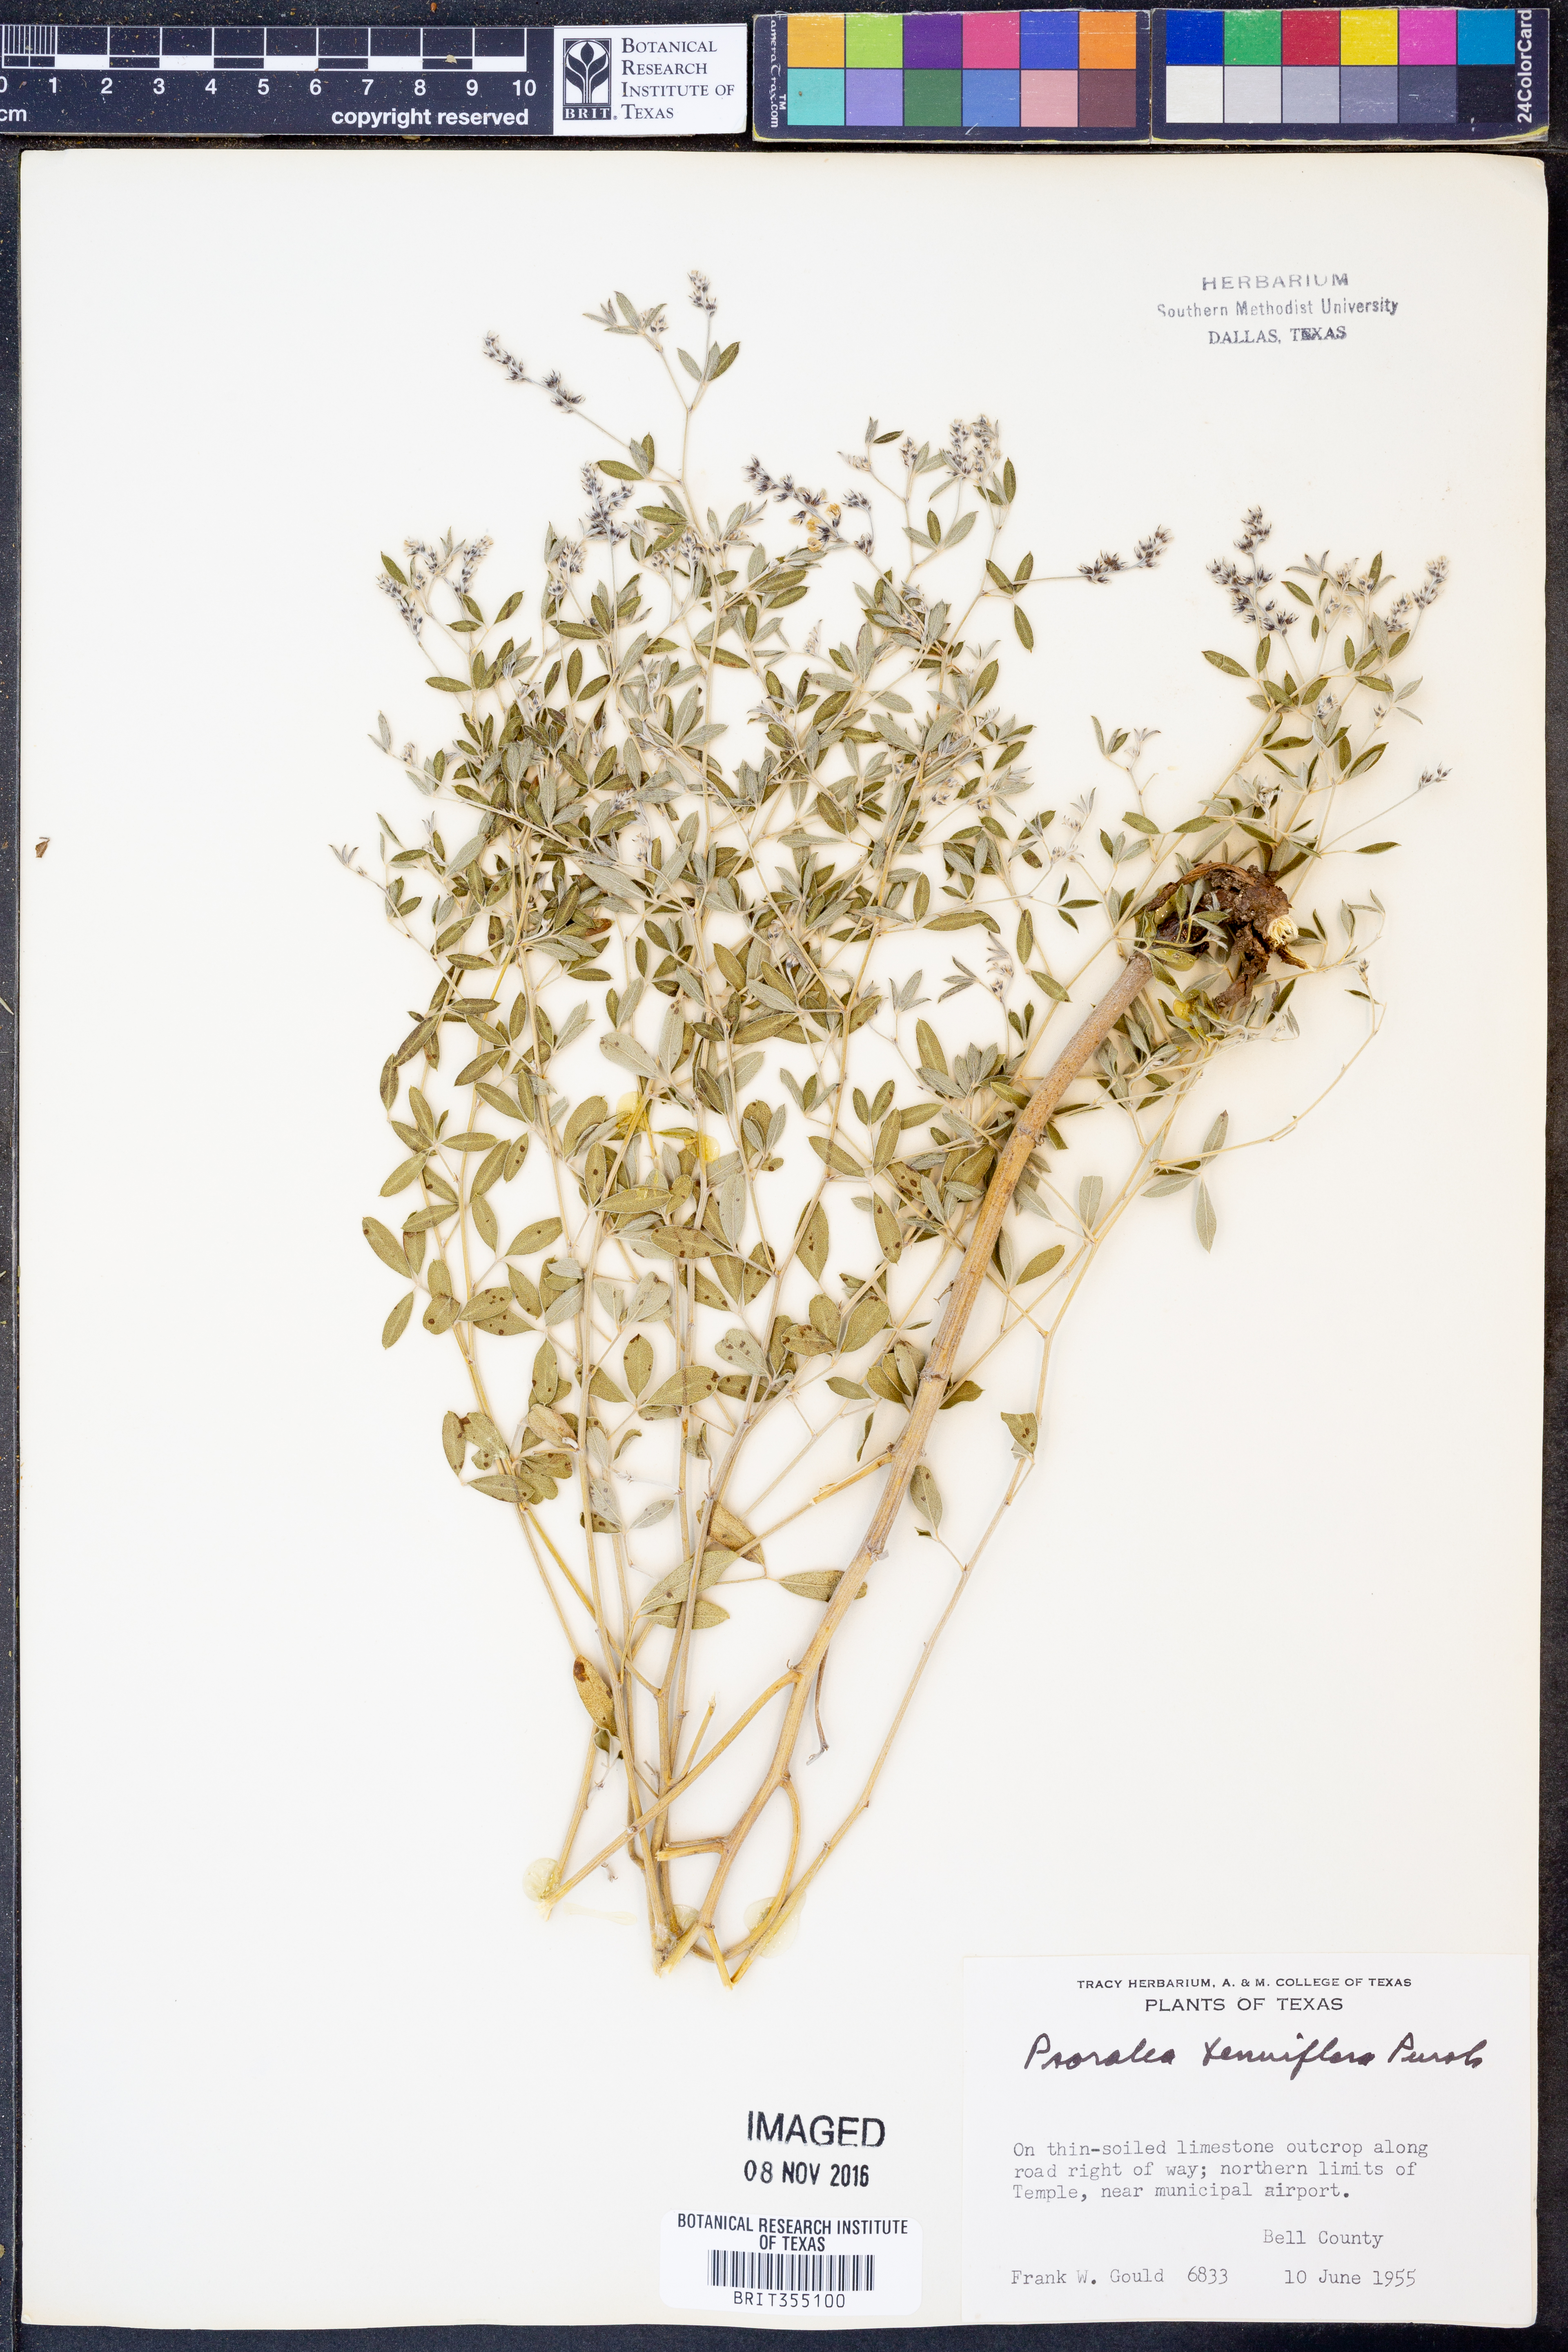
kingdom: Plantae
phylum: Tracheophyta
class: Magnoliopsida
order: Fabales
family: Fabaceae
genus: Pediomelum
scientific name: Pediomelum tenuiflorum
